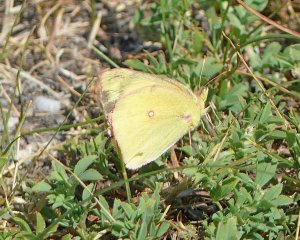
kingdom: Animalia
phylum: Arthropoda
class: Insecta
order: Lepidoptera
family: Pieridae
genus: Colias
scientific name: Colias interior
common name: Pink-edged Sulphur
